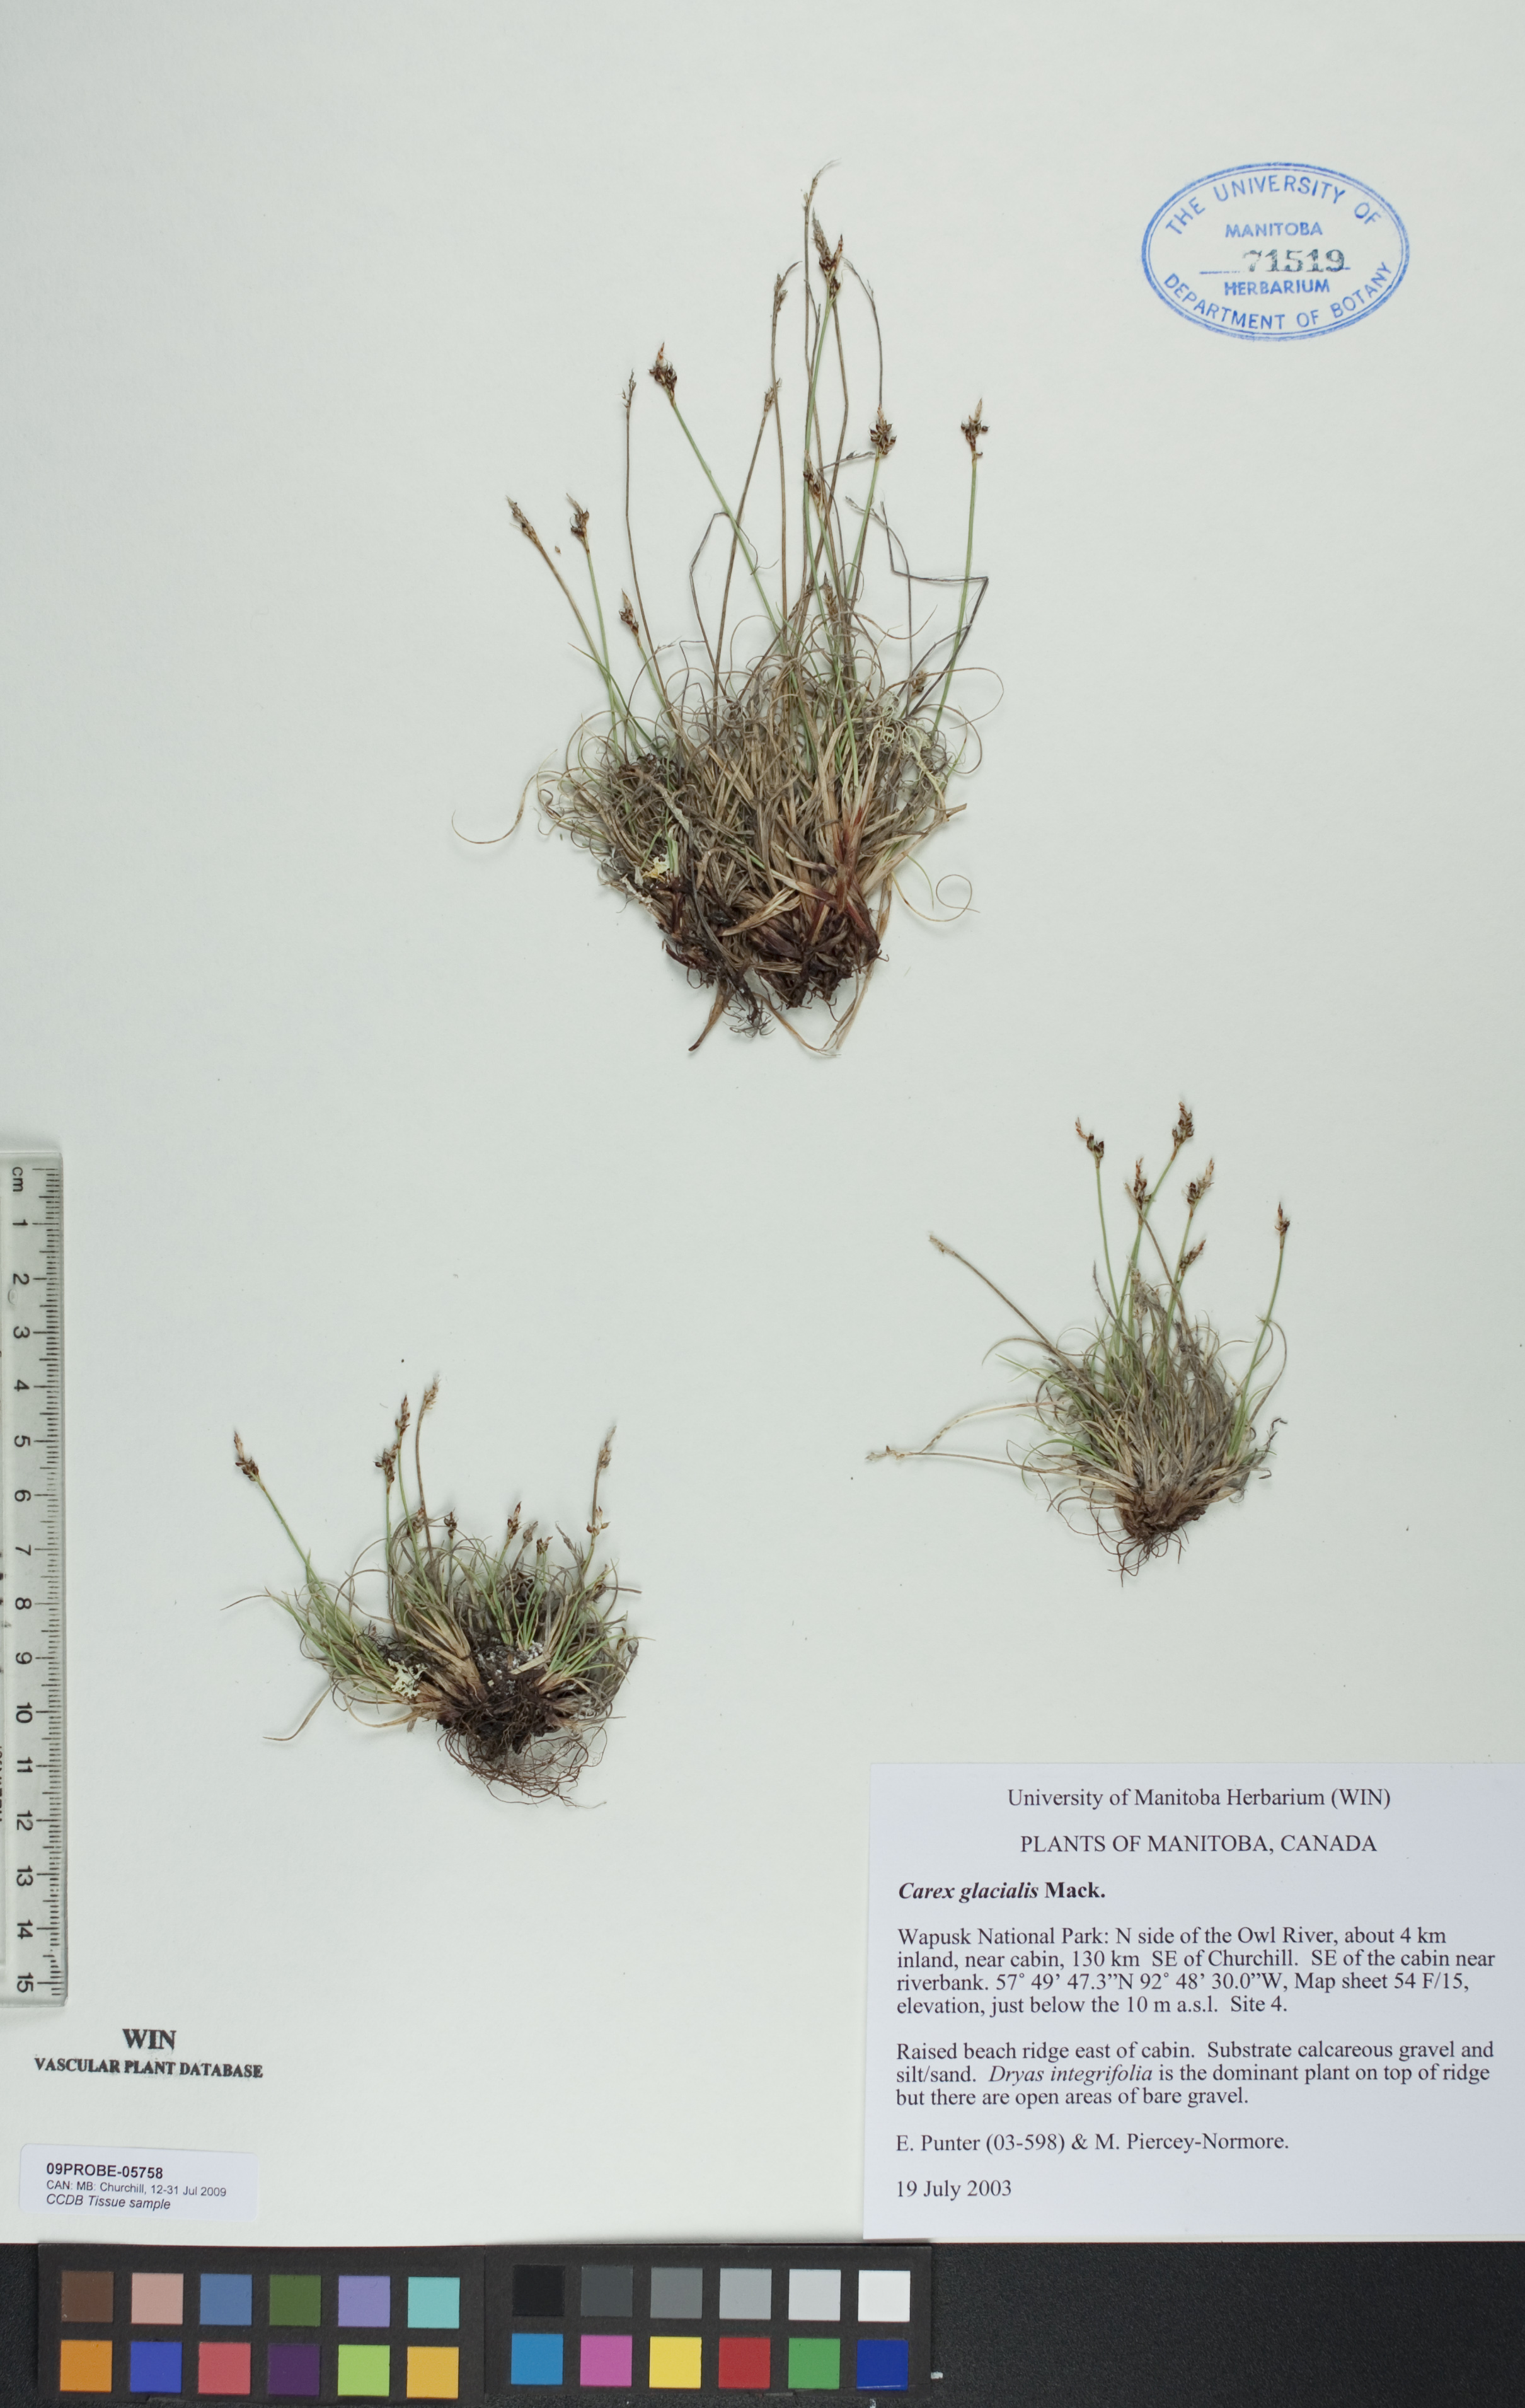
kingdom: Plantae
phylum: Tracheophyta
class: Liliopsida
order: Poales
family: Cyperaceae
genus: Carex
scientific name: Carex glacialis
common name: Newfoundland sedge
